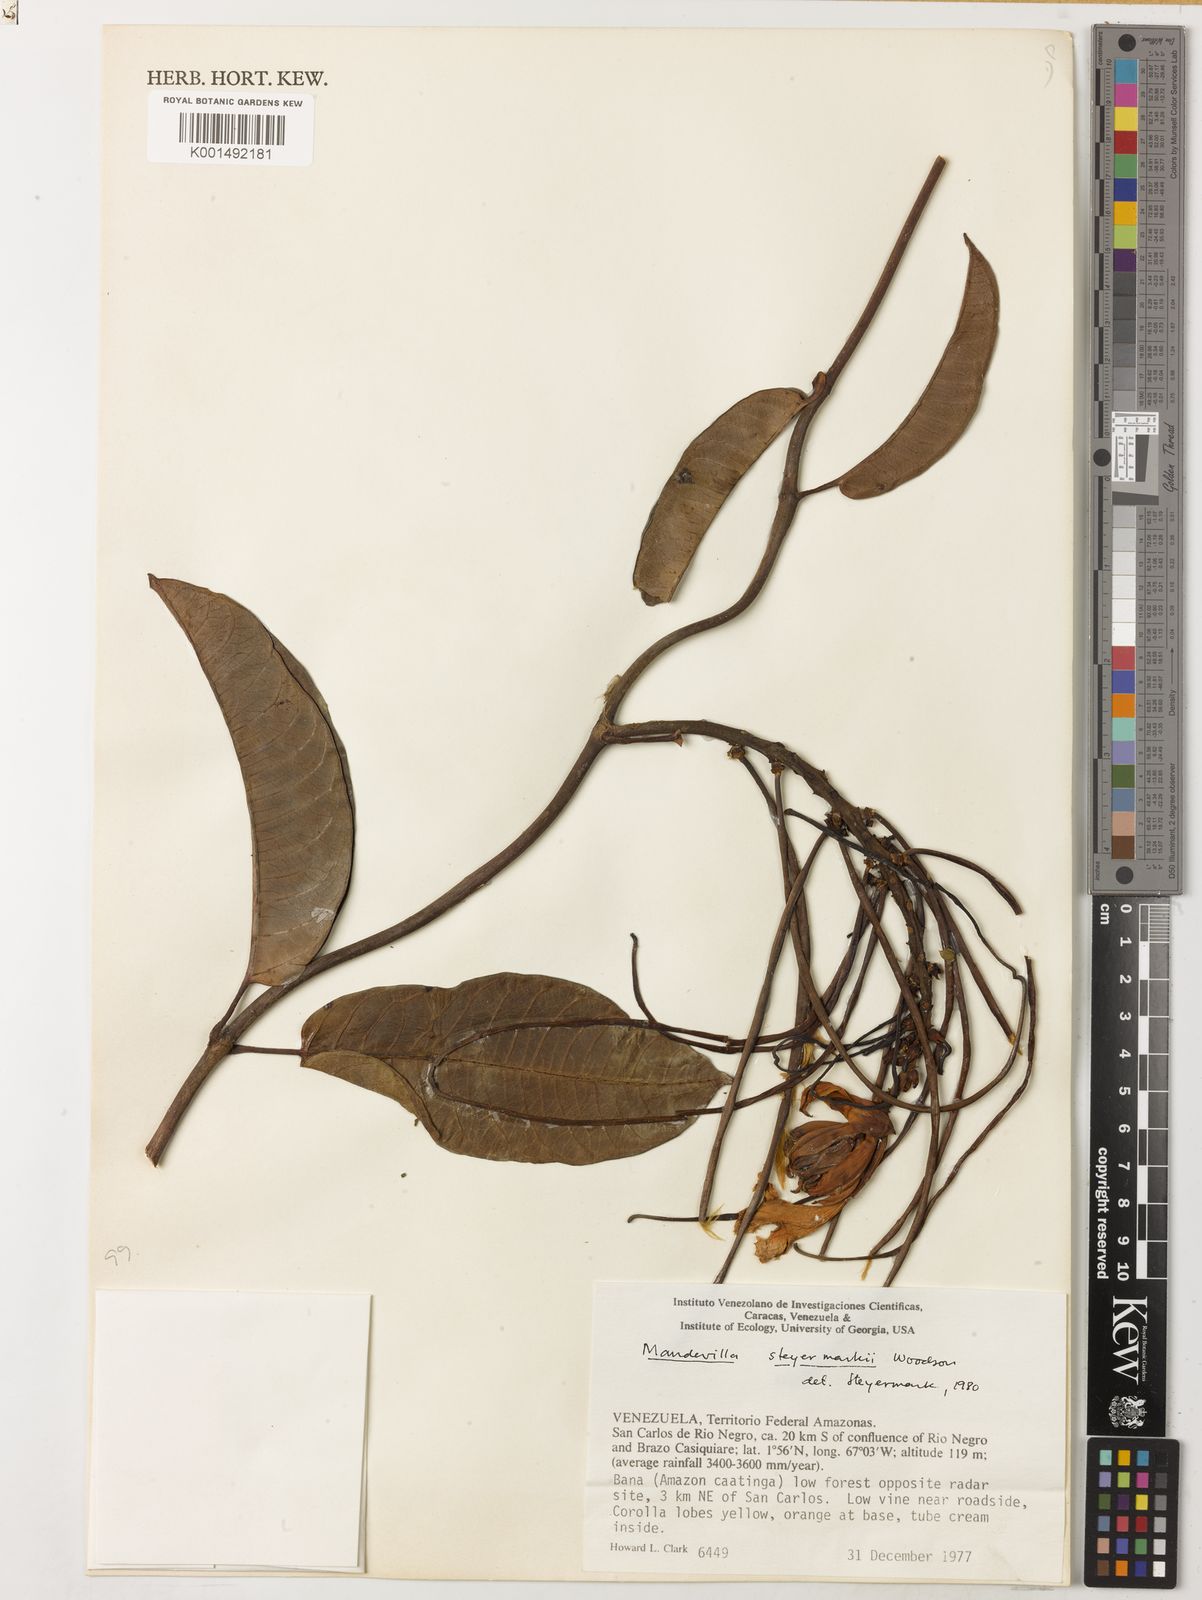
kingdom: Plantae
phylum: Tracheophyta
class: Magnoliopsida
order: Gentianales
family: Apocynaceae
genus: Mandevilla
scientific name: Mandevilla steyermarkii
